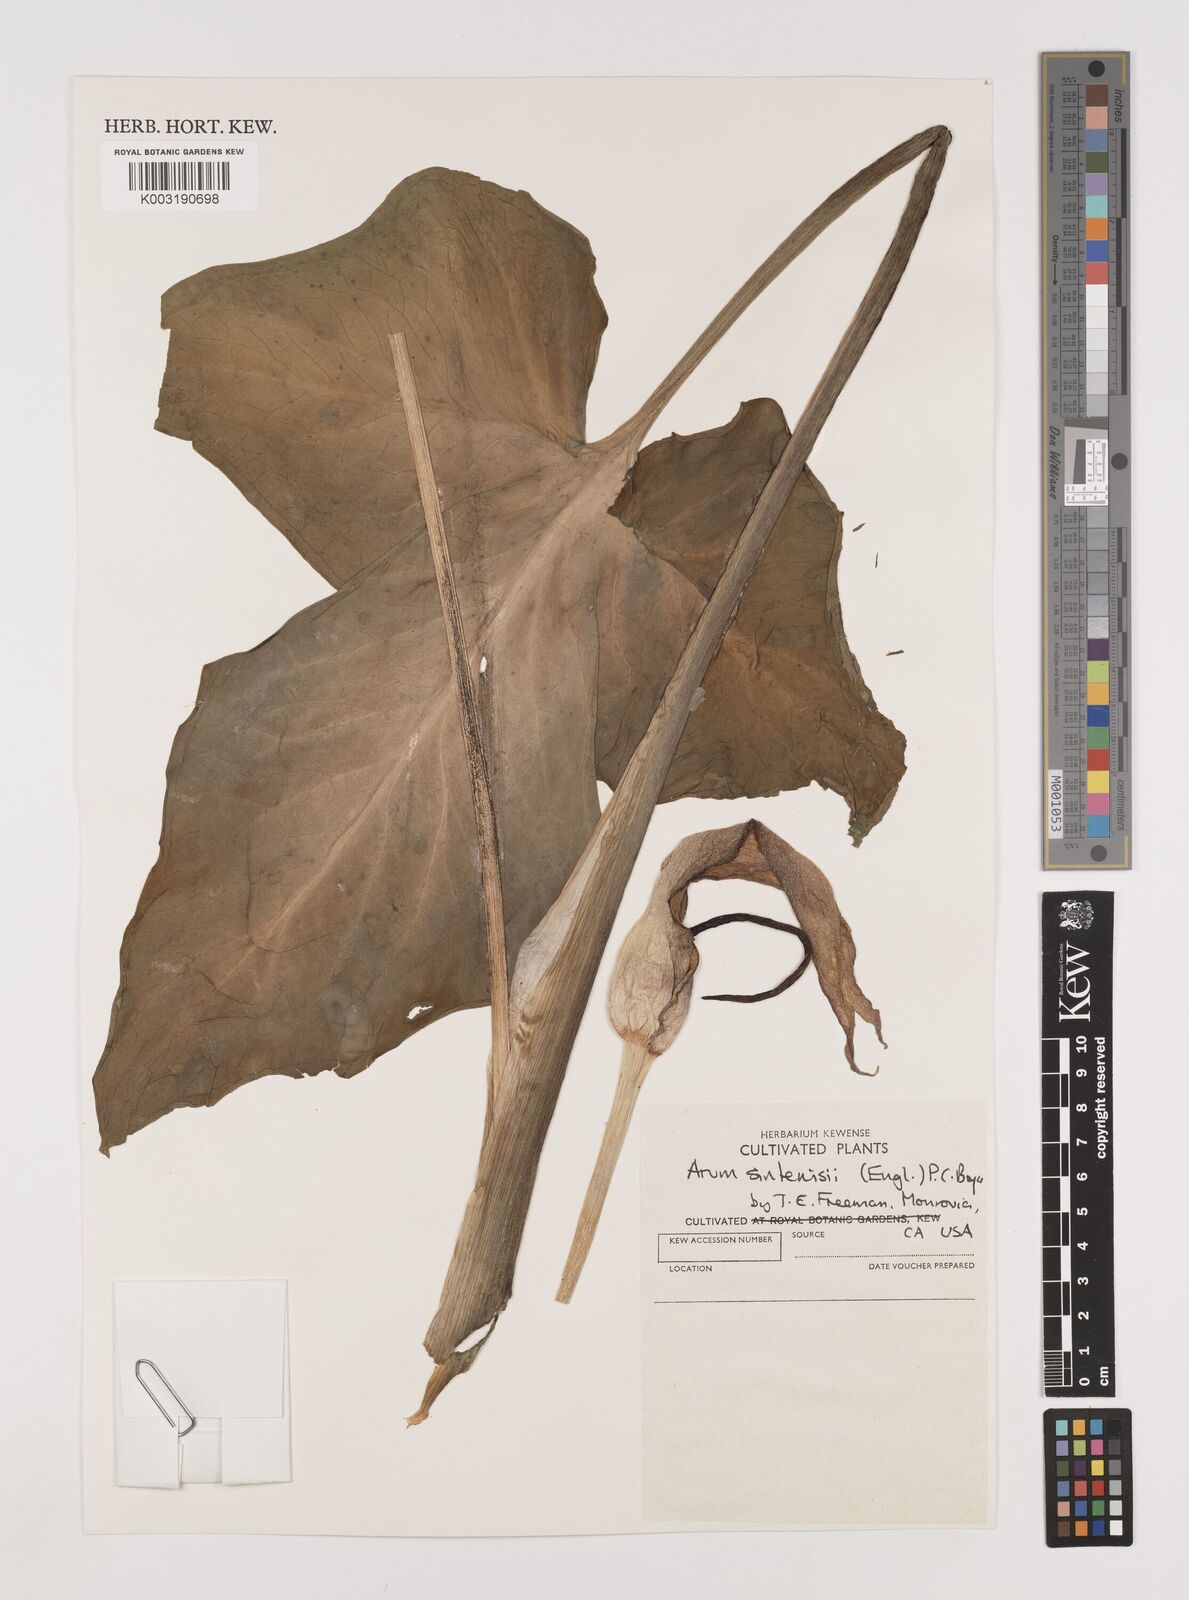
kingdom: Plantae
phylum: Tracheophyta
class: Liliopsida
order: Alismatales
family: Araceae
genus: Arum
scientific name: Arum sintenisii
